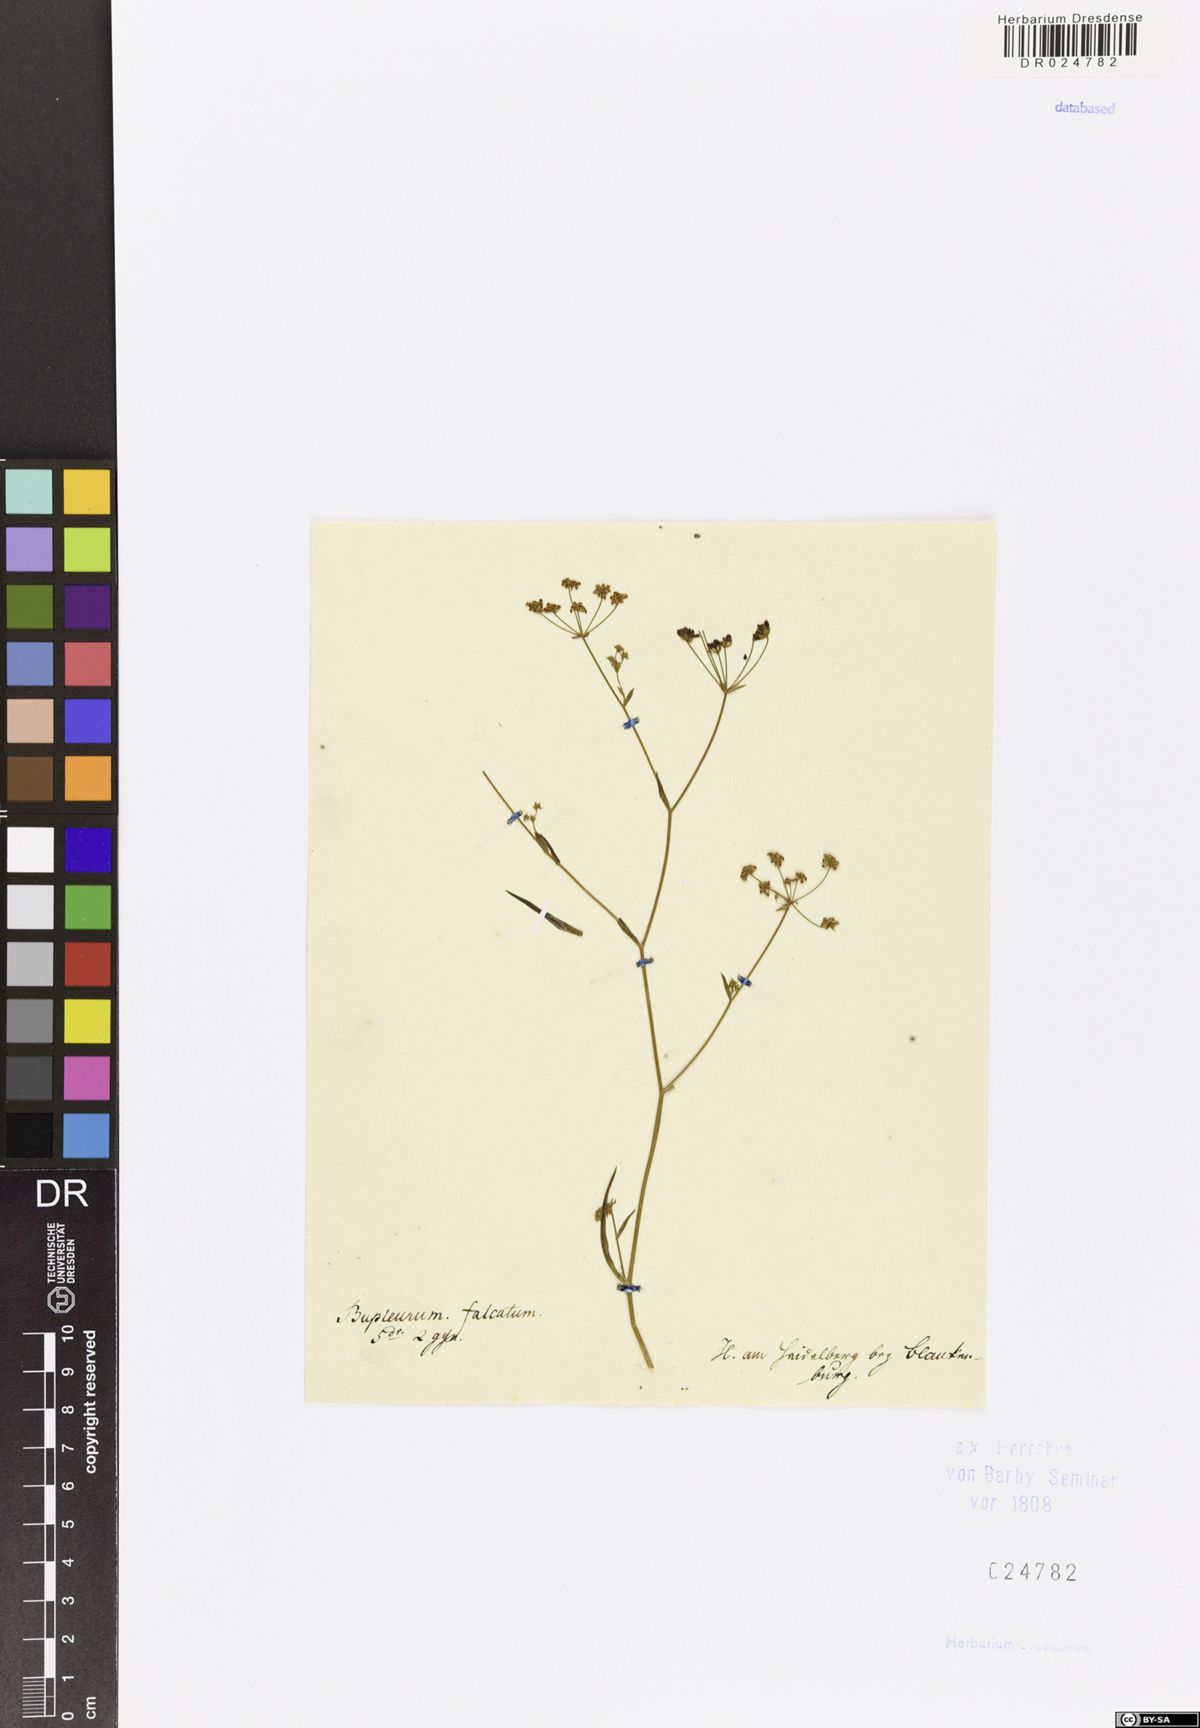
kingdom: Plantae
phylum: Tracheophyta
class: Magnoliopsida
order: Apiales
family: Apiaceae
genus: Bupleurum
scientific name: Bupleurum falcatum
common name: Sickle-leaved hare's-ear
